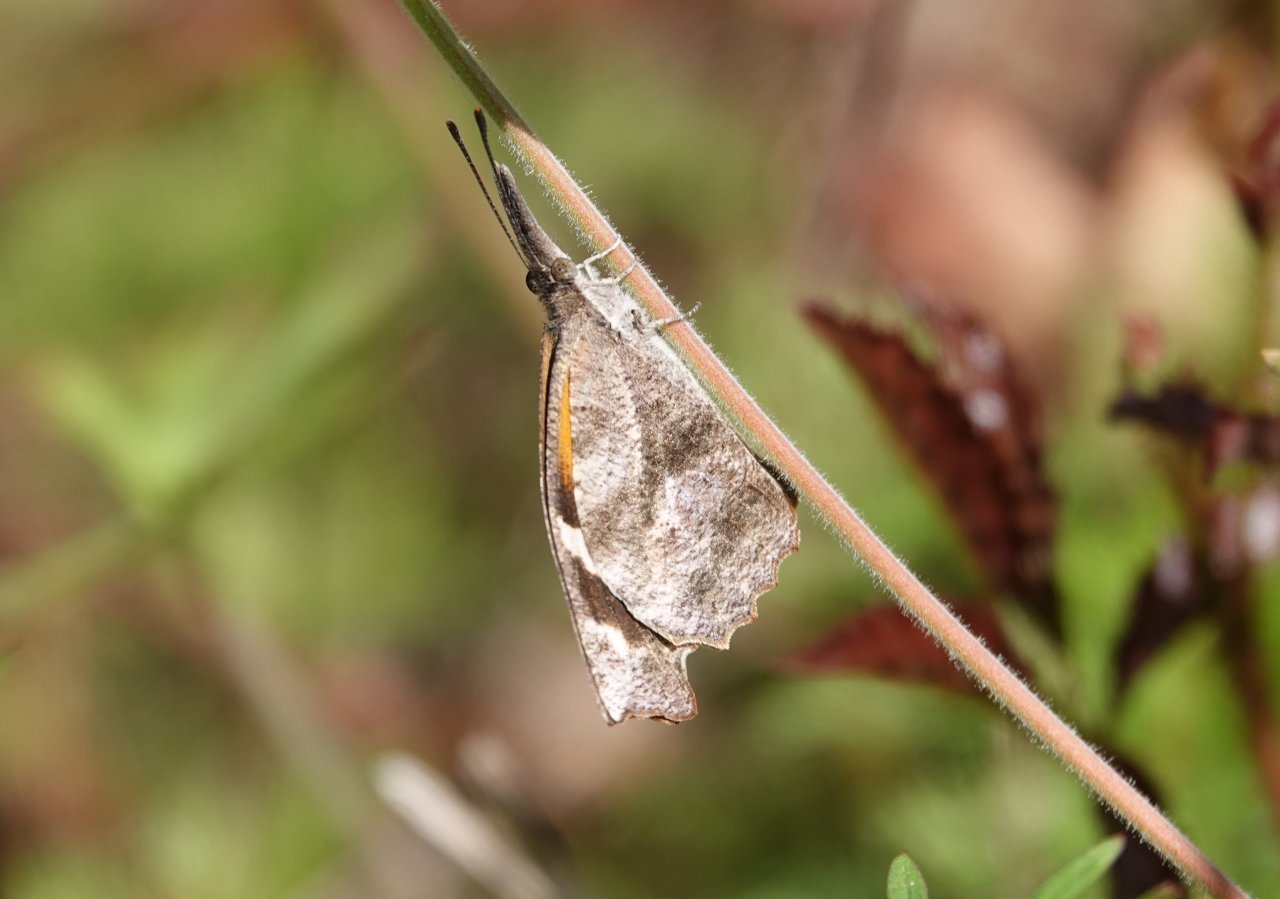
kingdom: Animalia
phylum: Arthropoda
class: Insecta
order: Lepidoptera
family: Nymphalidae
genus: Libytheana
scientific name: Libytheana carinenta
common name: American Snout
